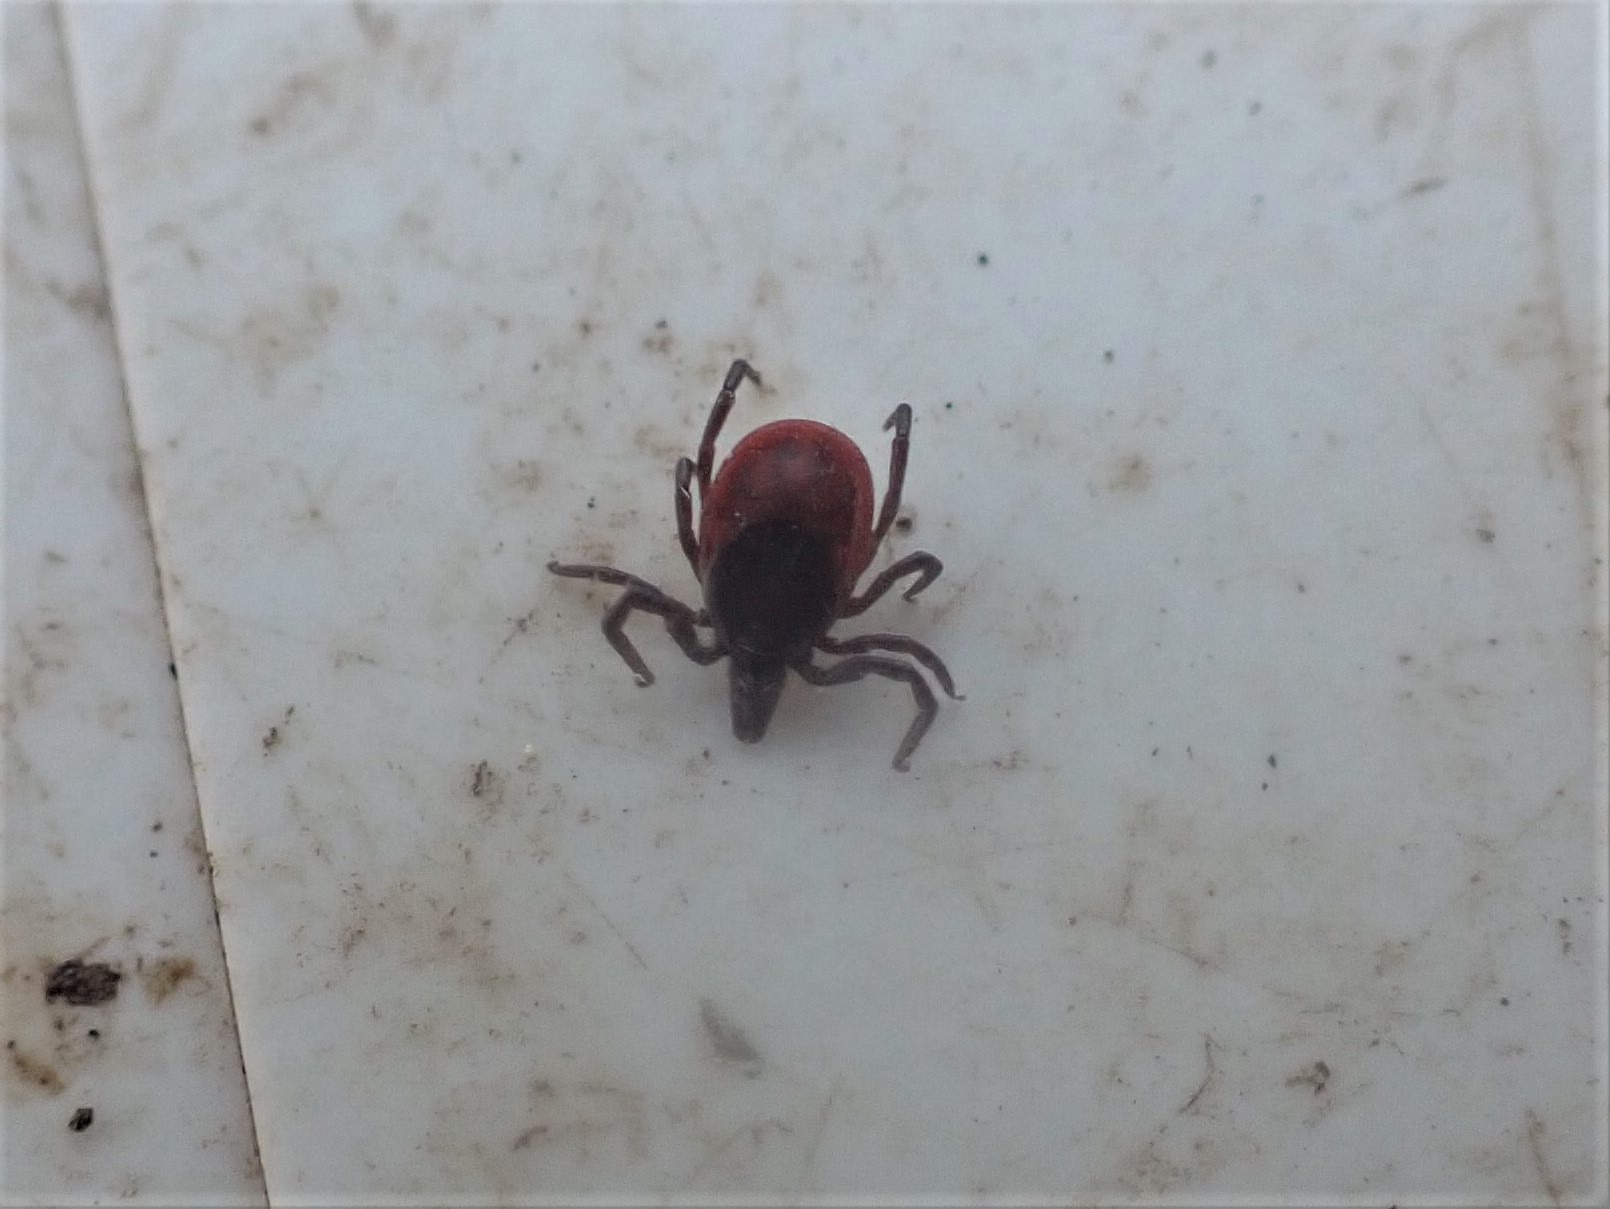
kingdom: Animalia
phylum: Arthropoda
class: Arachnida
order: Ixodida
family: Ixodidae
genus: Ixodes
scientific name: Ixodes ricinus
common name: Skovflåt
